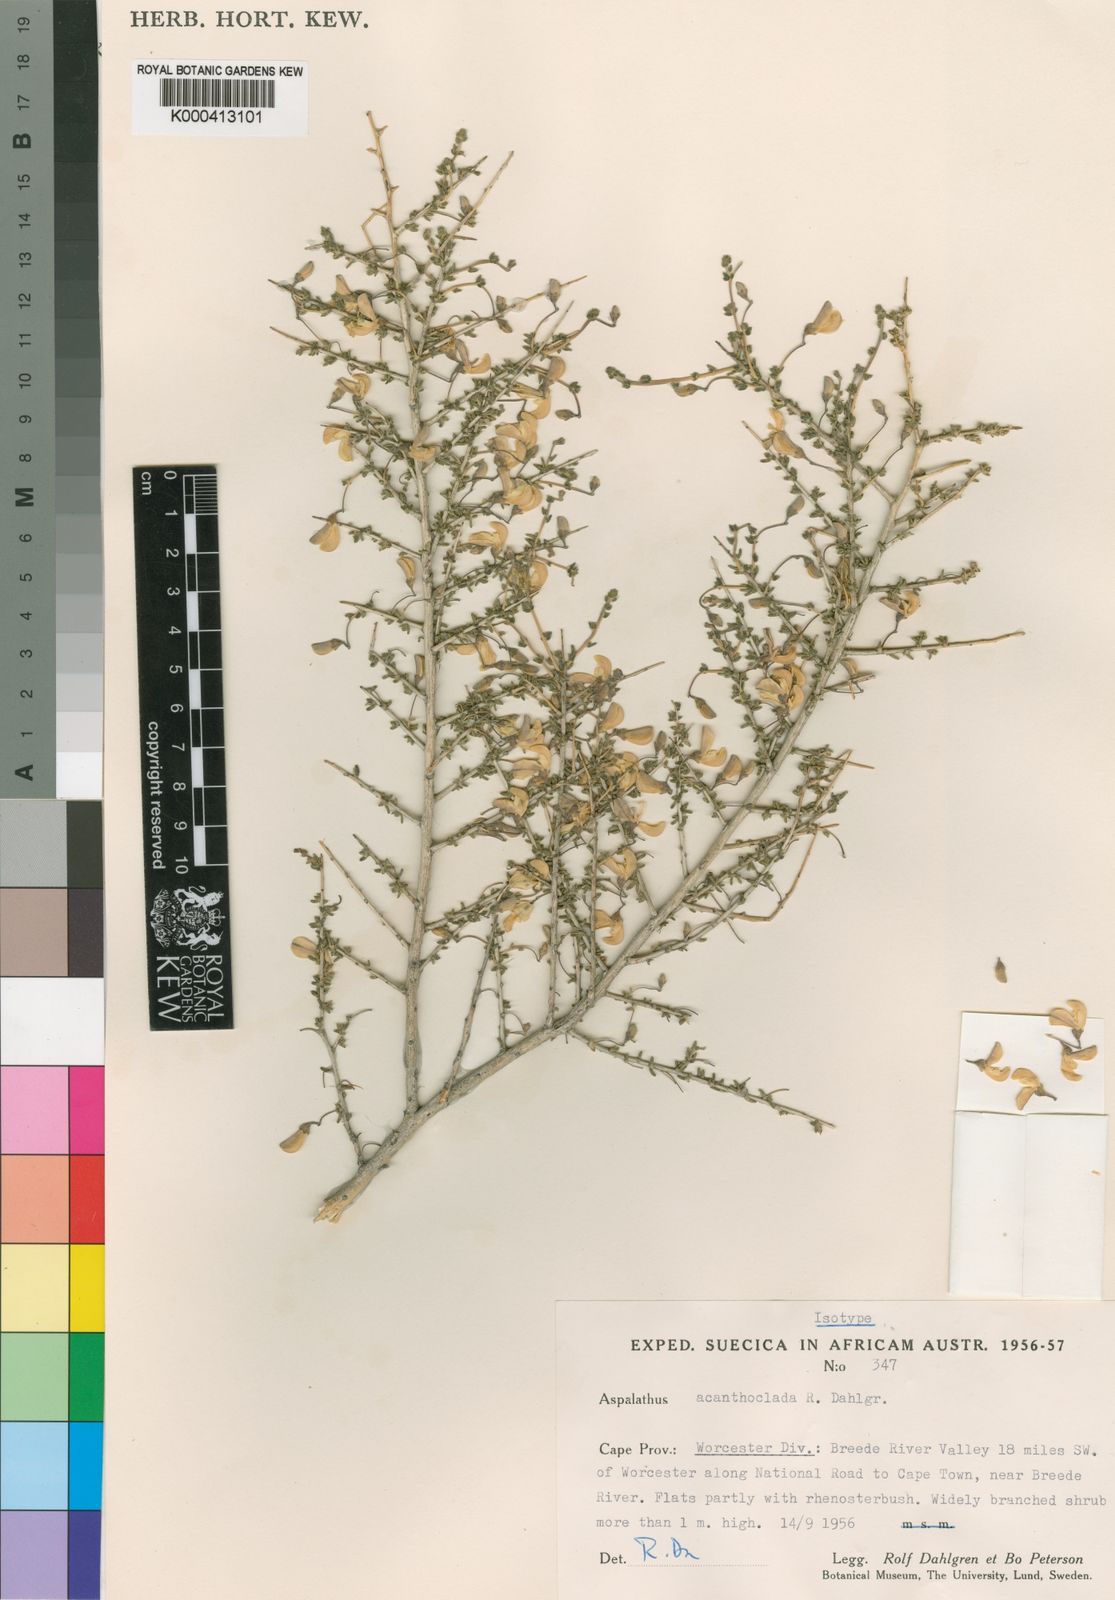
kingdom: Plantae
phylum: Tracheophyta
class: Magnoliopsida
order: Fabales
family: Fabaceae
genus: Aspalathus
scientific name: Aspalathus acanthoclada
